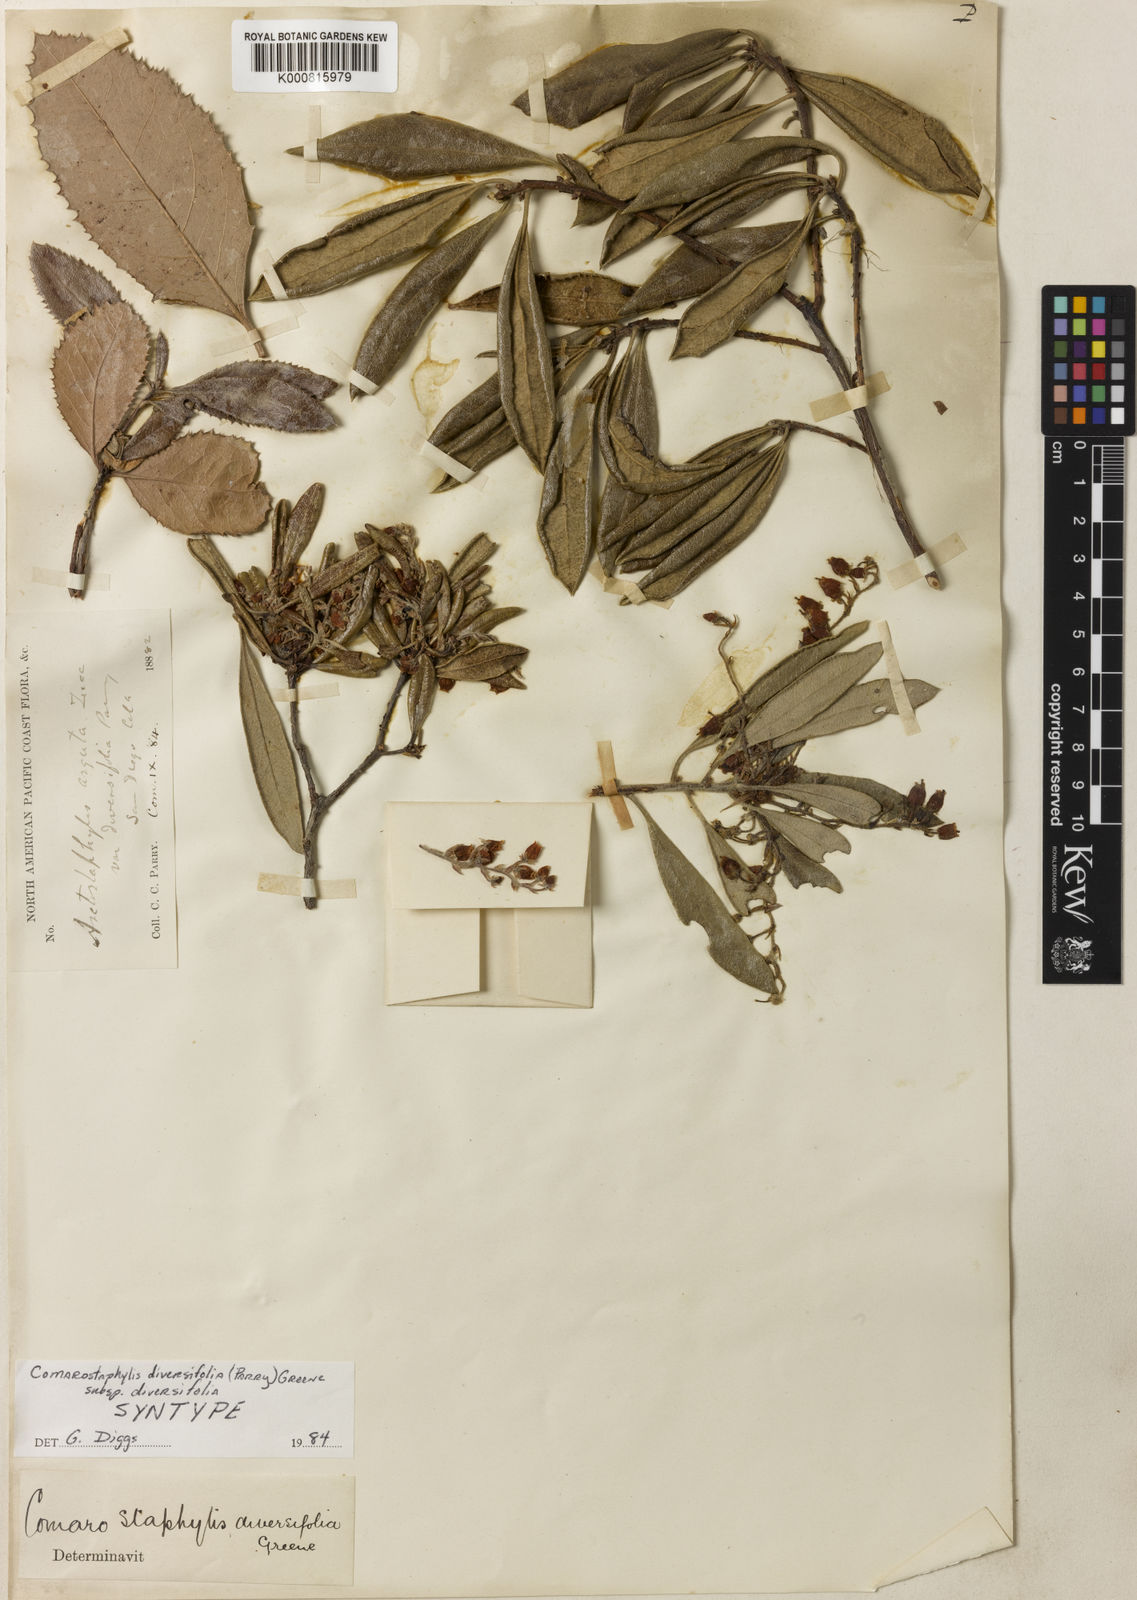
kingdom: Plantae
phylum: Tracheophyta
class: Magnoliopsida
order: Ericales
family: Ericaceae
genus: Comarostaphylis
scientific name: Comarostaphylis diversifolia
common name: Summer-holly
